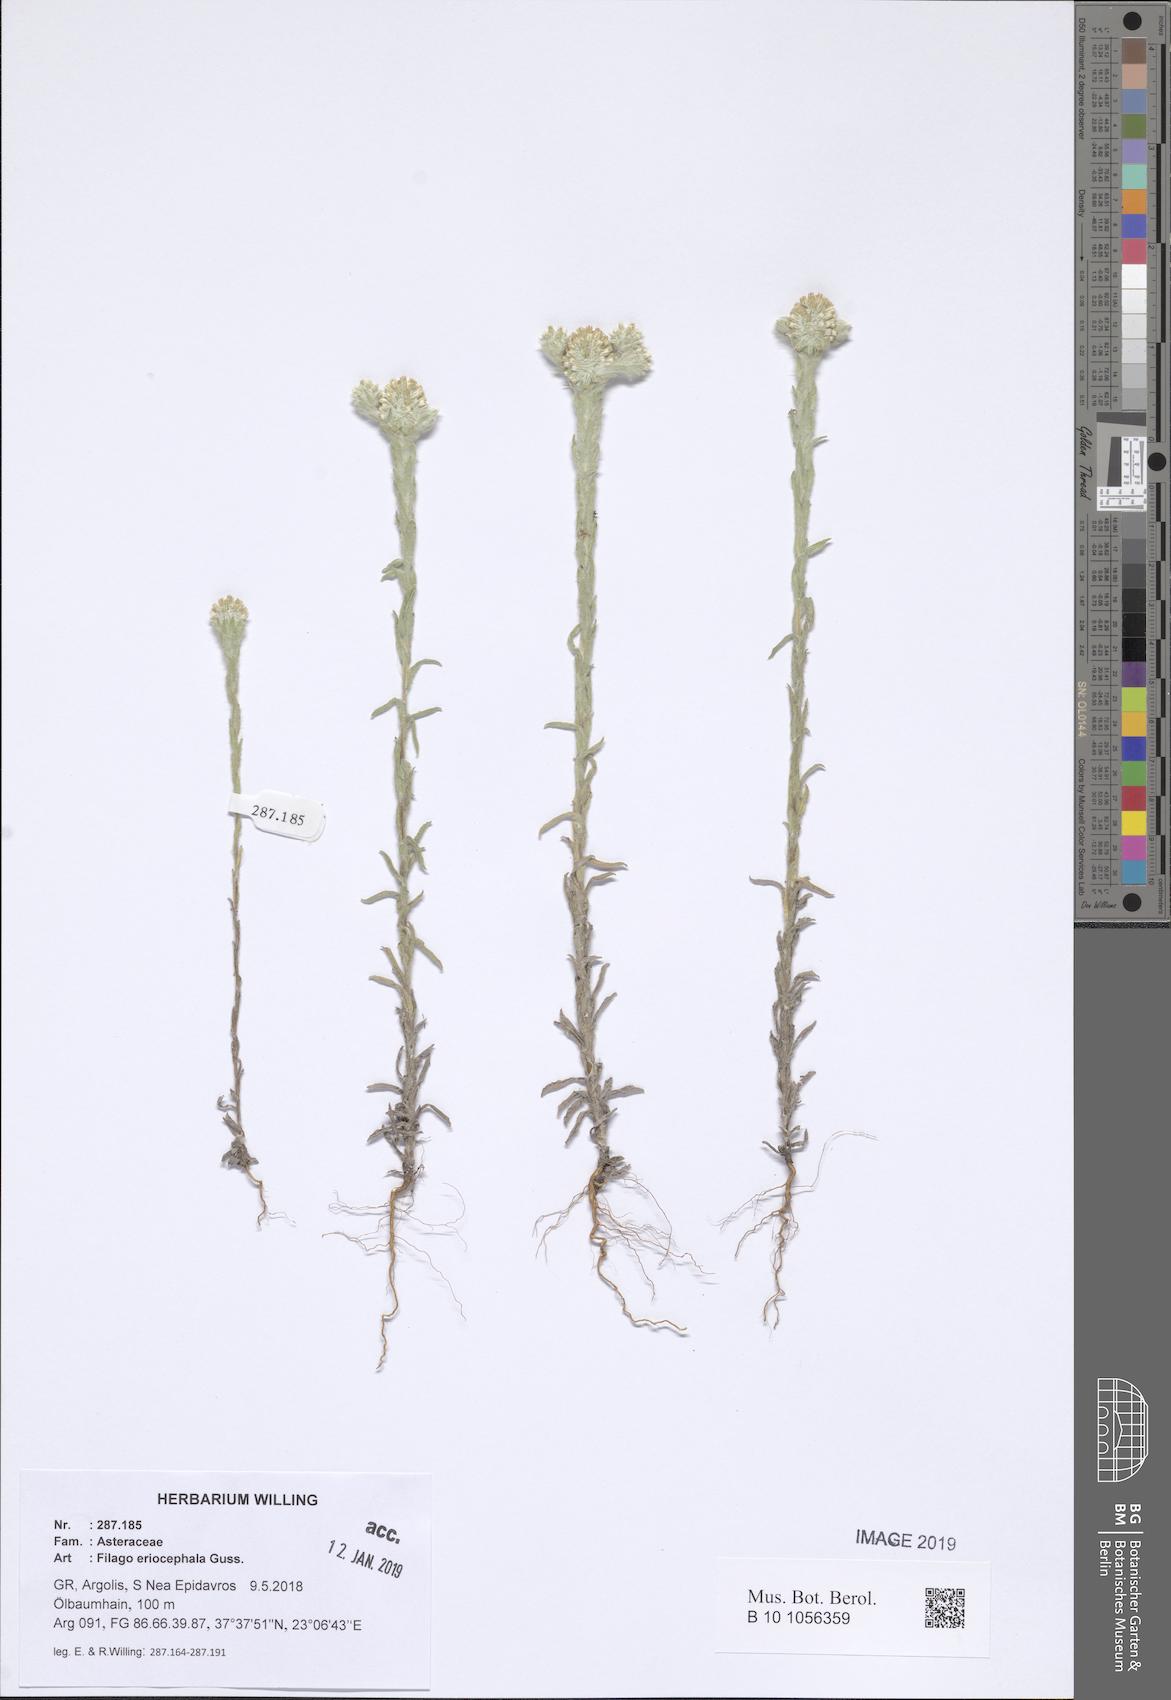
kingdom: Plantae
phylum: Tracheophyta
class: Magnoliopsida
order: Asterales
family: Asteraceae
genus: Filago
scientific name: Filago eriocephala
